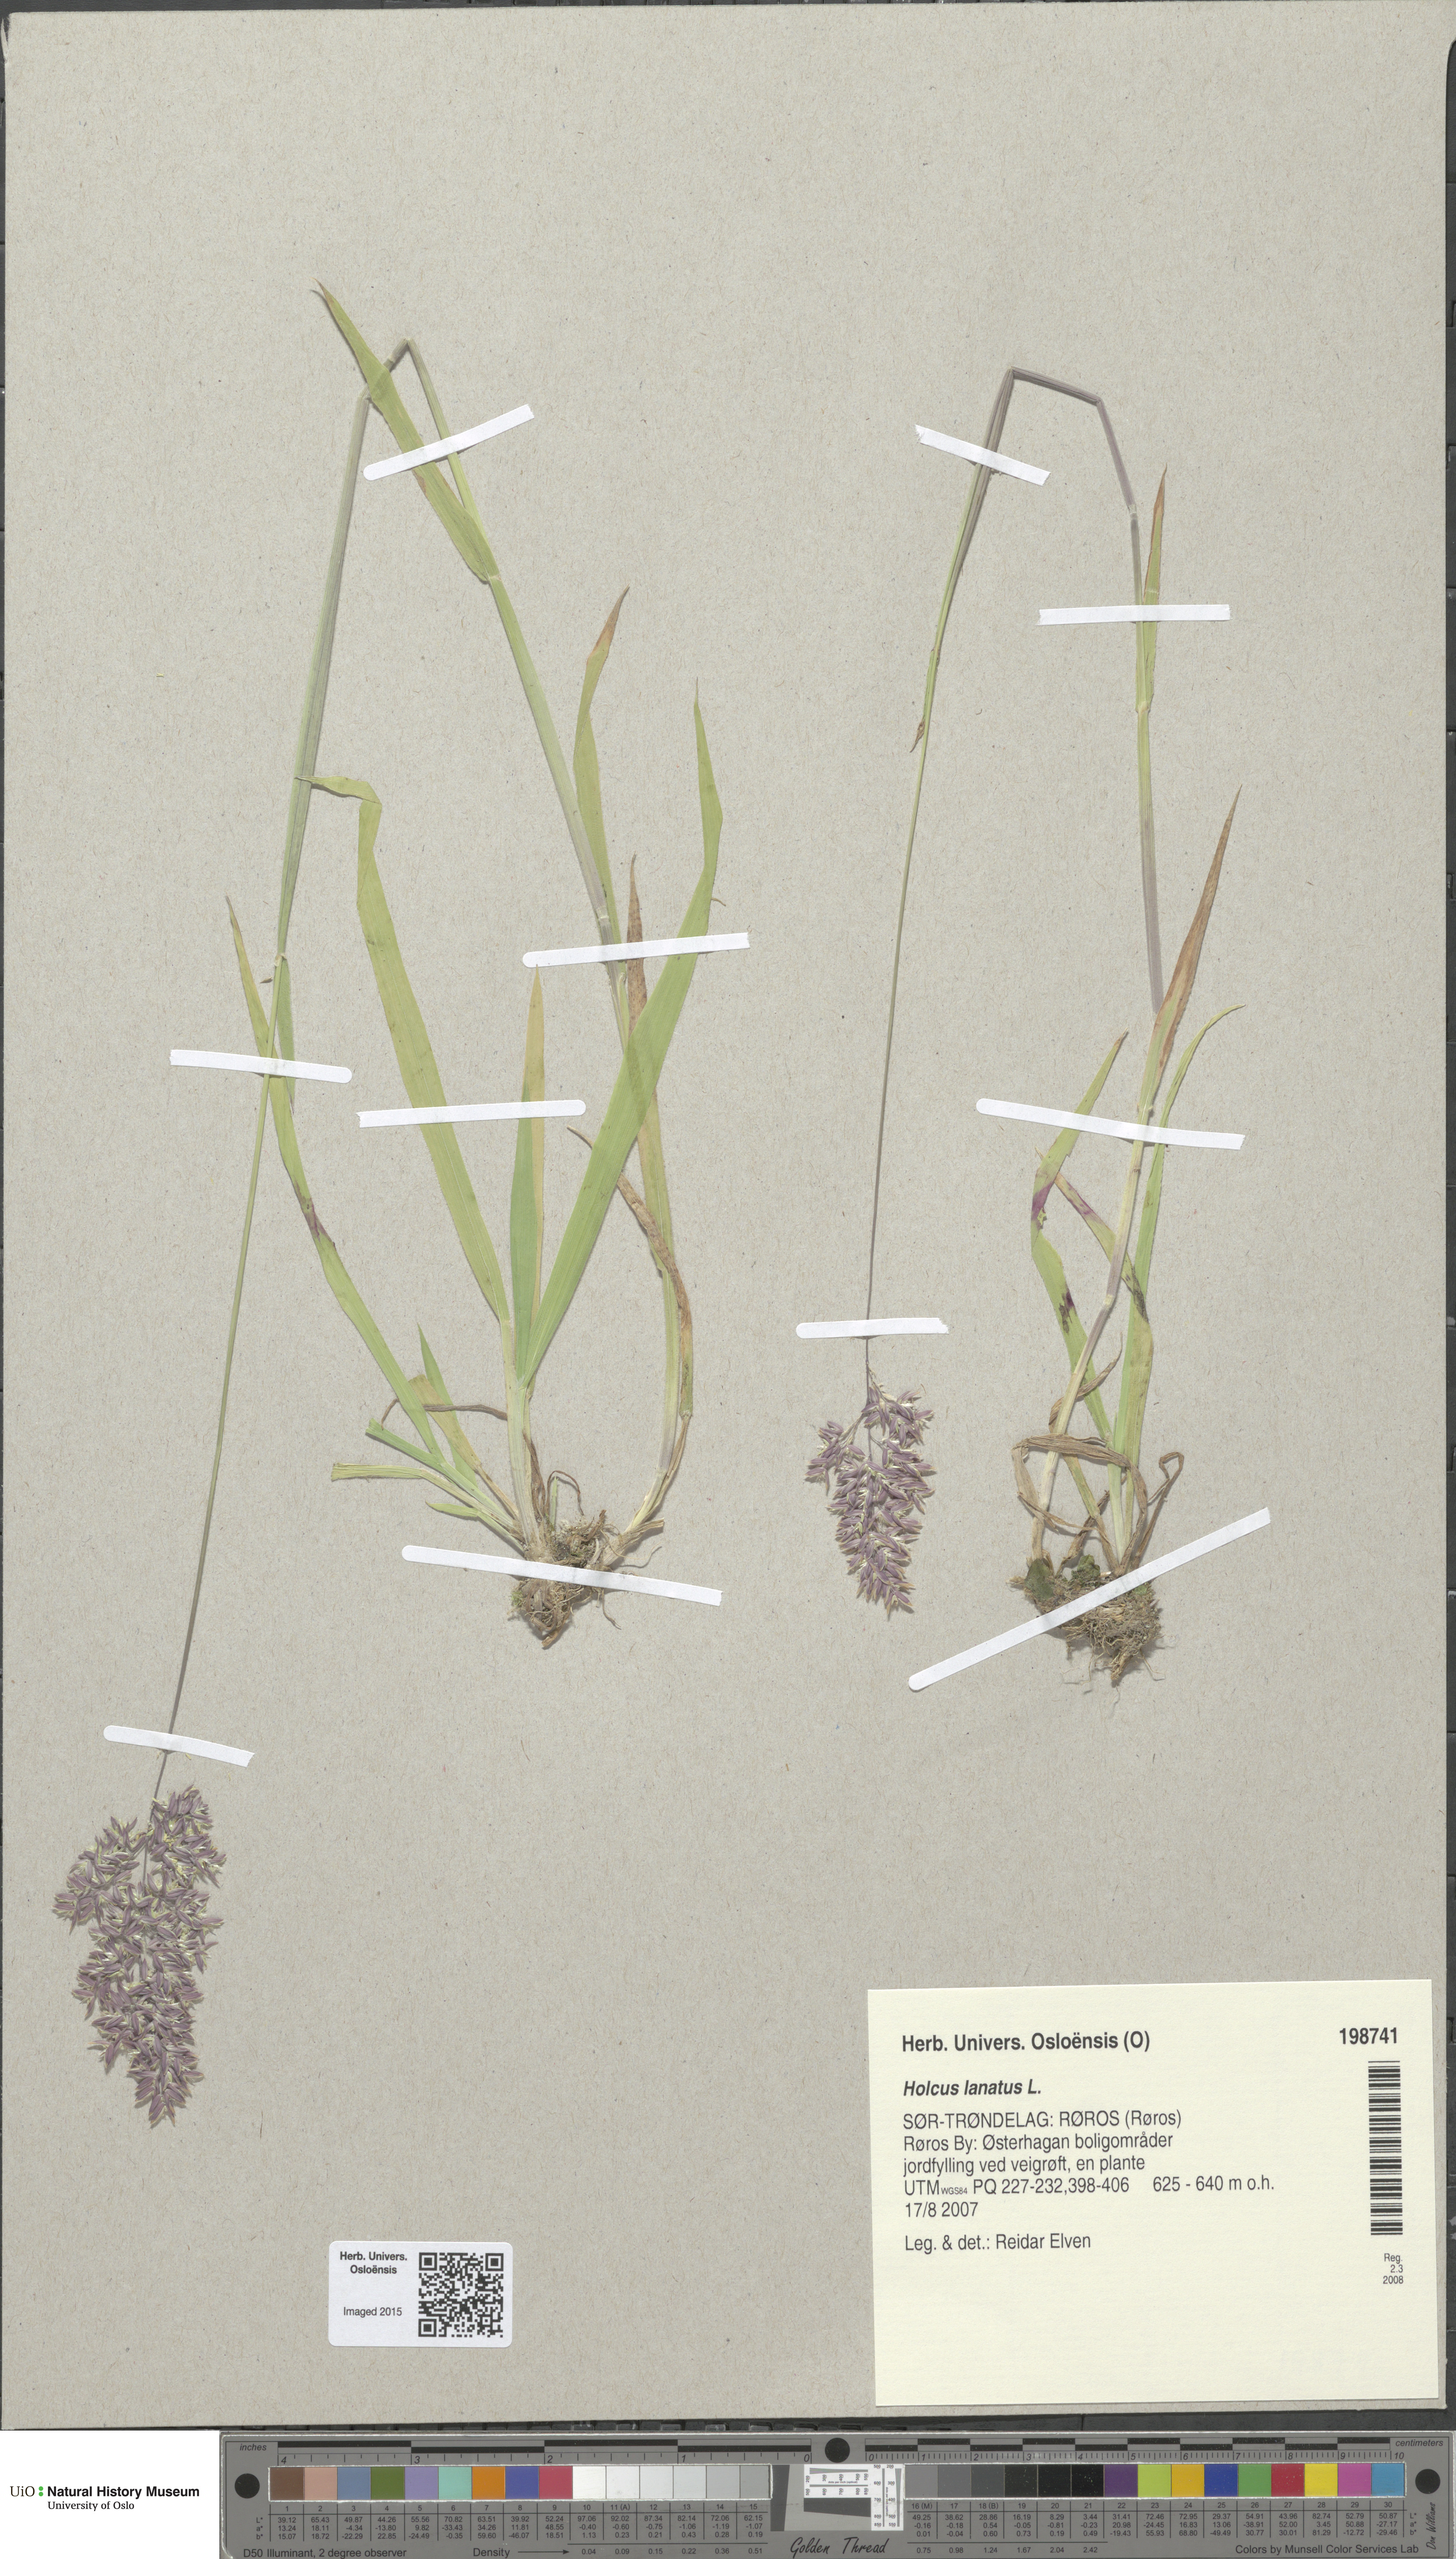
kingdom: Plantae
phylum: Tracheophyta
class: Liliopsida
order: Poales
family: Poaceae
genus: Holcus
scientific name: Holcus lanatus
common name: Yorkshire-fog
